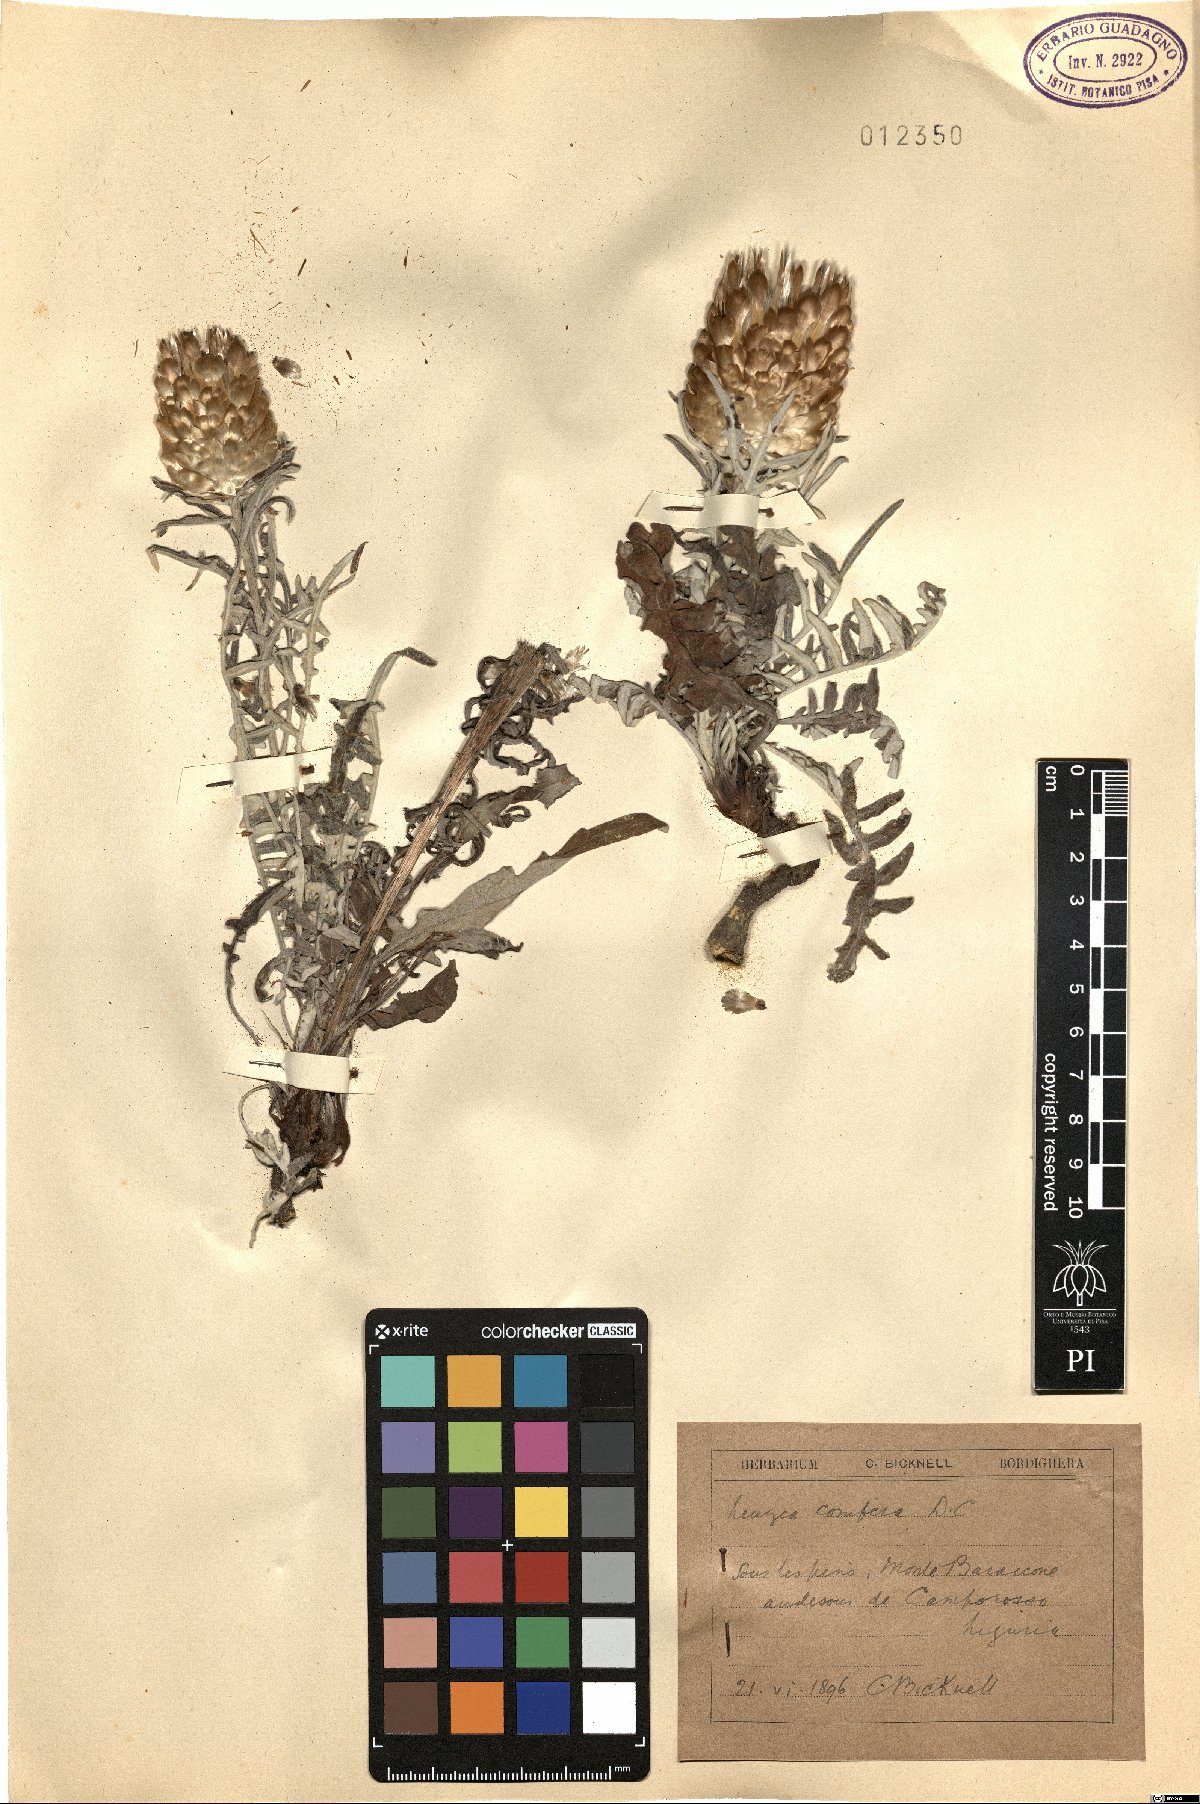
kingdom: Plantae
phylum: Tracheophyta
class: Magnoliopsida
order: Asterales
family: Asteraceae
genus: Leuzea
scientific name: Leuzea conifera
